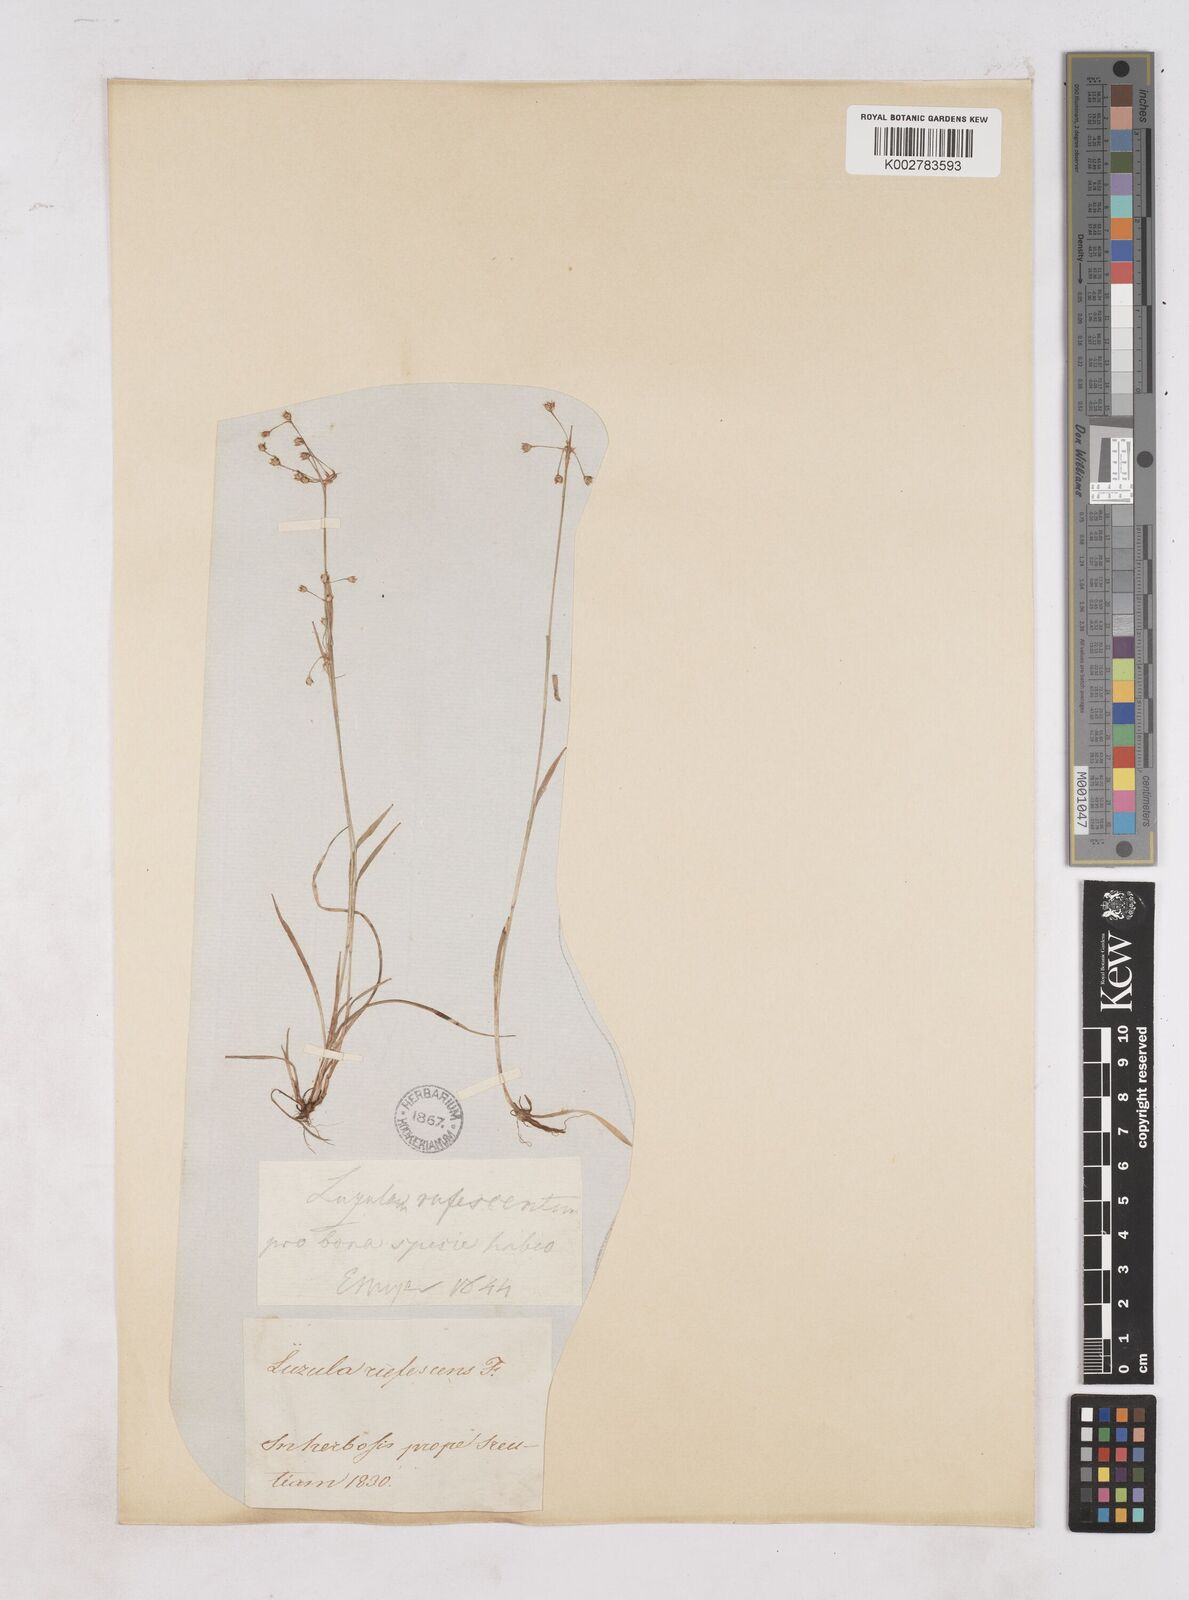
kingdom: Plantae
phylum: Tracheophyta
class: Liliopsida
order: Poales
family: Juncaceae
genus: Luzula
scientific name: Luzula
